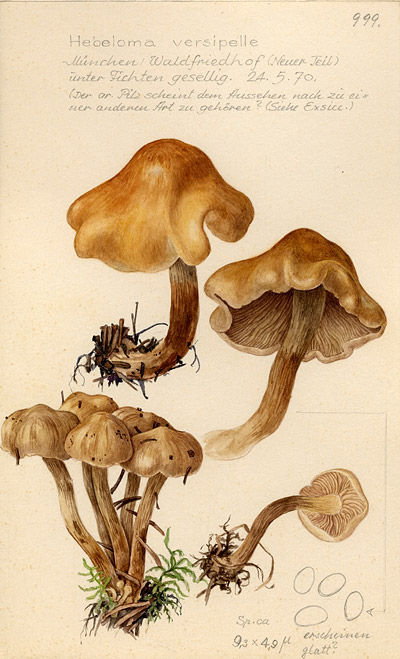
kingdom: Fungi
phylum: Basidiomycota
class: Agaricomycetes
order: Agaricales
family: Hymenogastraceae
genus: Hebeloma
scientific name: Hebeloma versipelle
